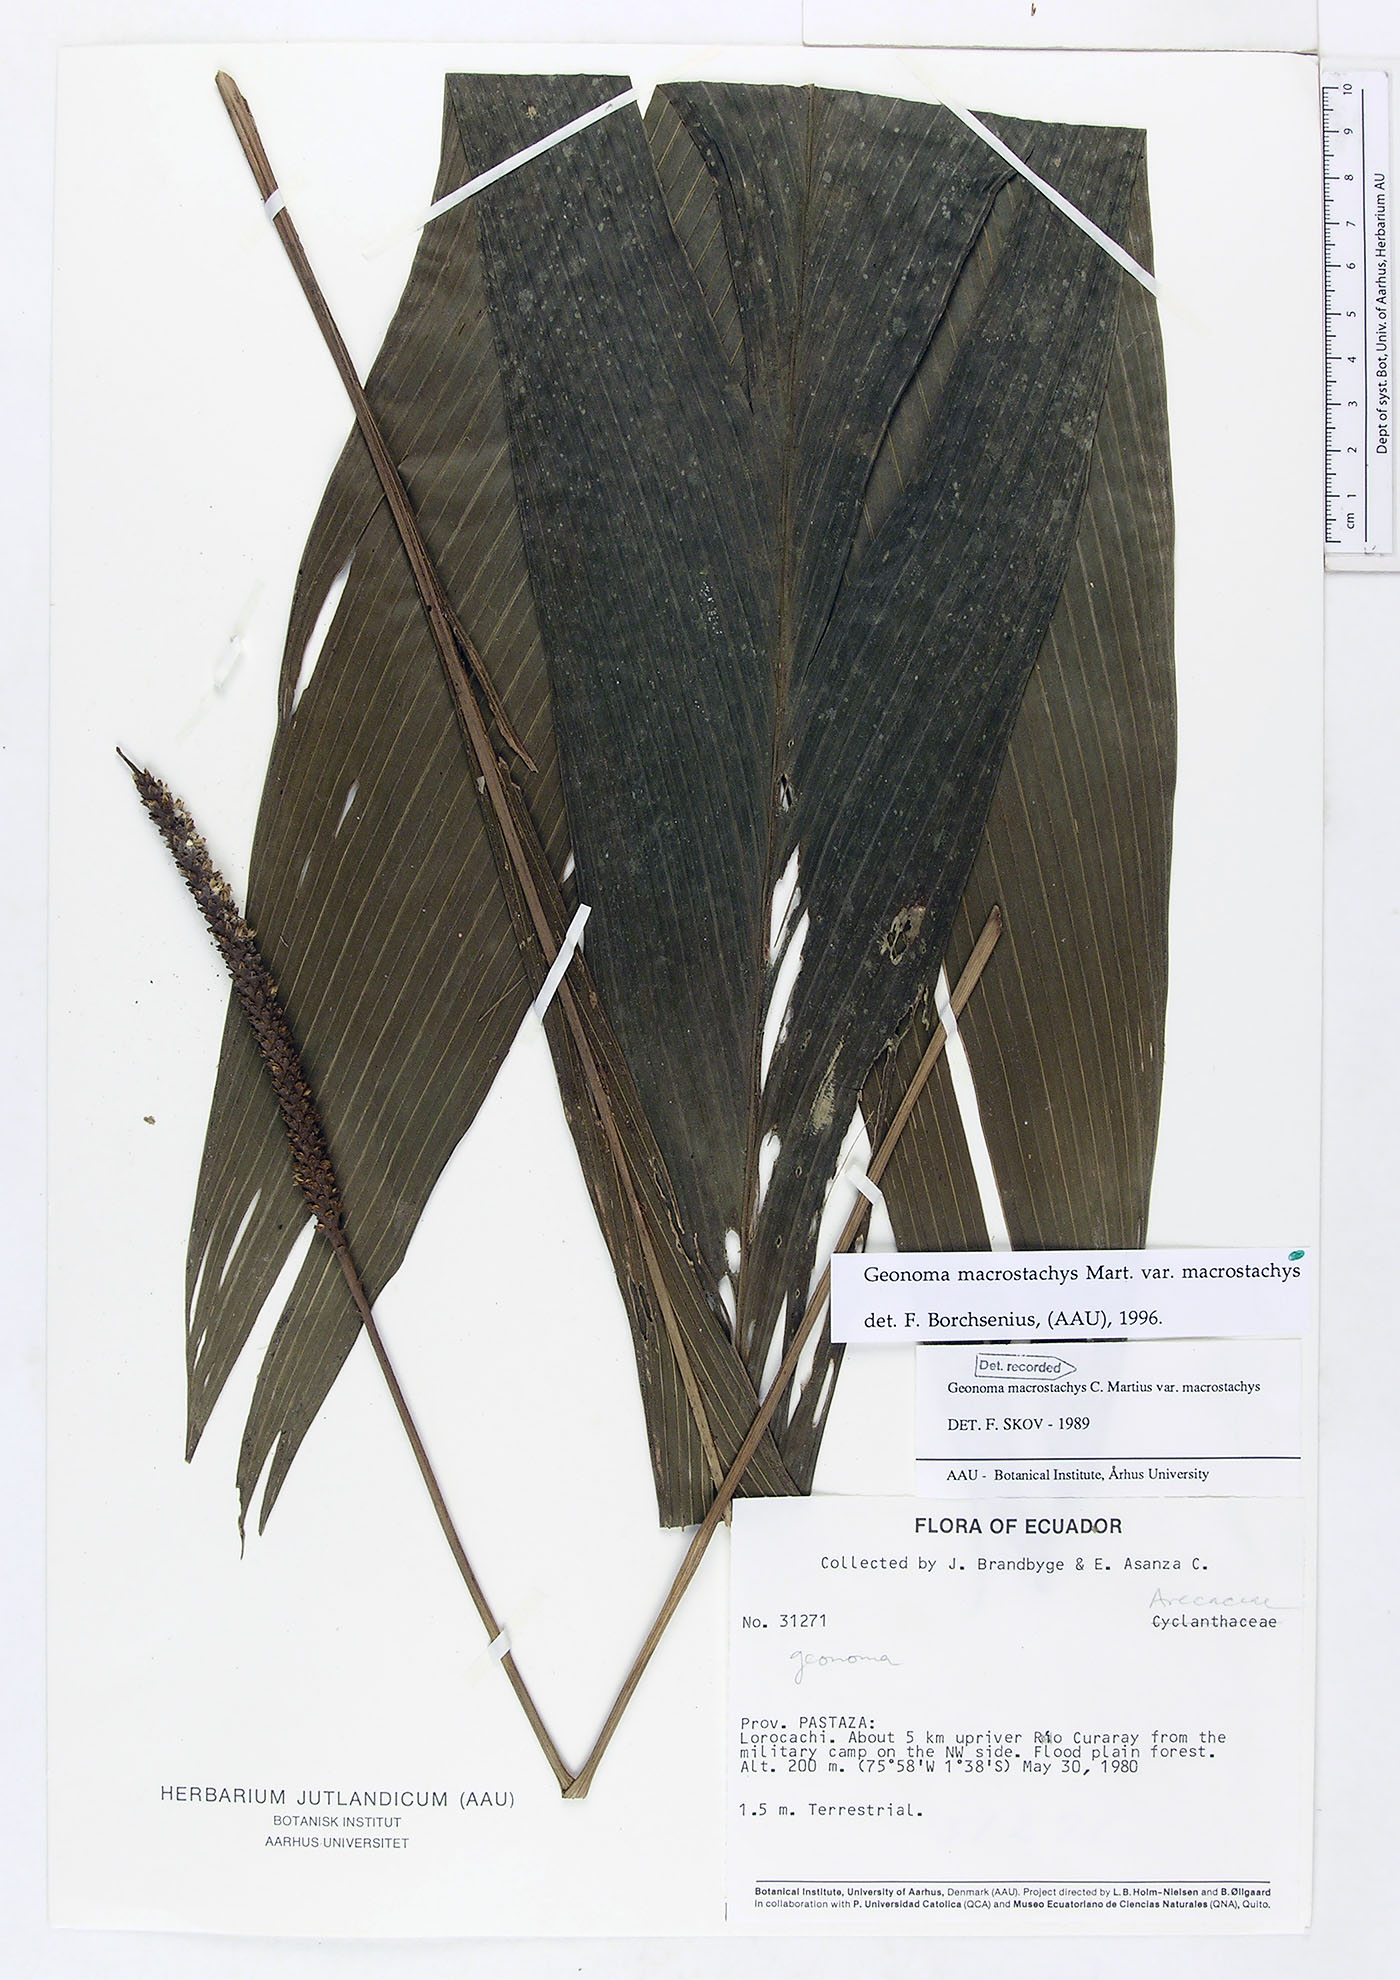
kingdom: Plantae
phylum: Tracheophyta
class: Liliopsida
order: Arecales
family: Arecaceae
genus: Geonoma
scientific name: Geonoma macrostachys
